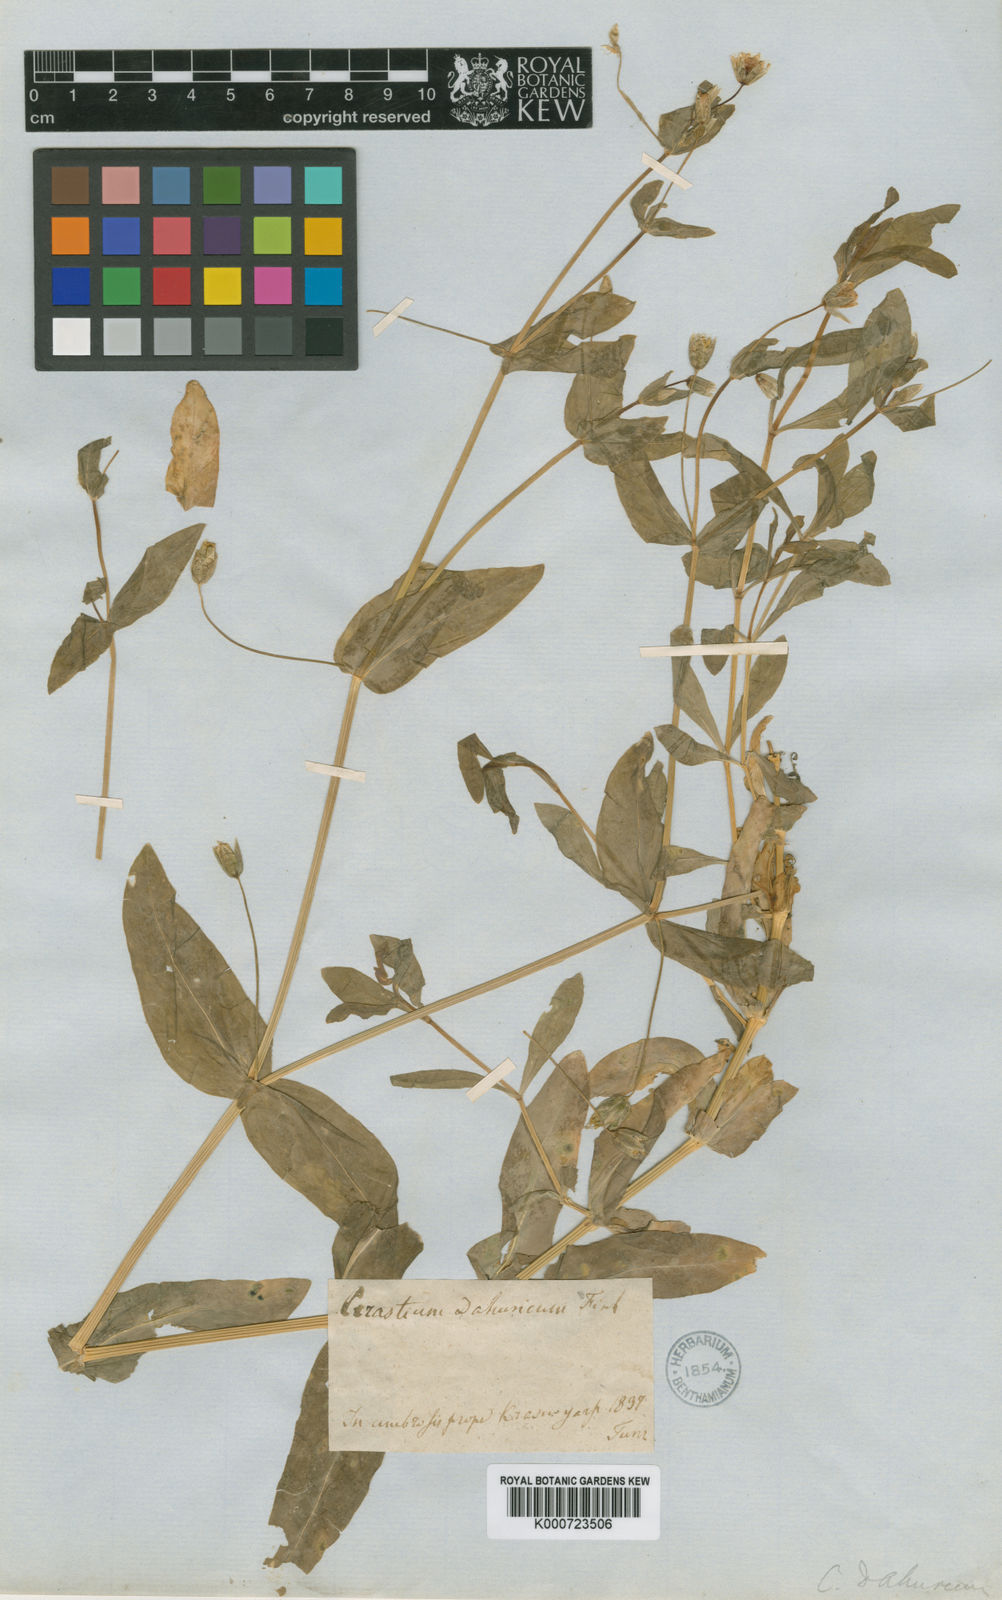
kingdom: Plantae
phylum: Tracheophyta
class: Magnoliopsida
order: Caryophyllales
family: Caryophyllaceae
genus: Dichodon
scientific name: Dichodon davuricum
